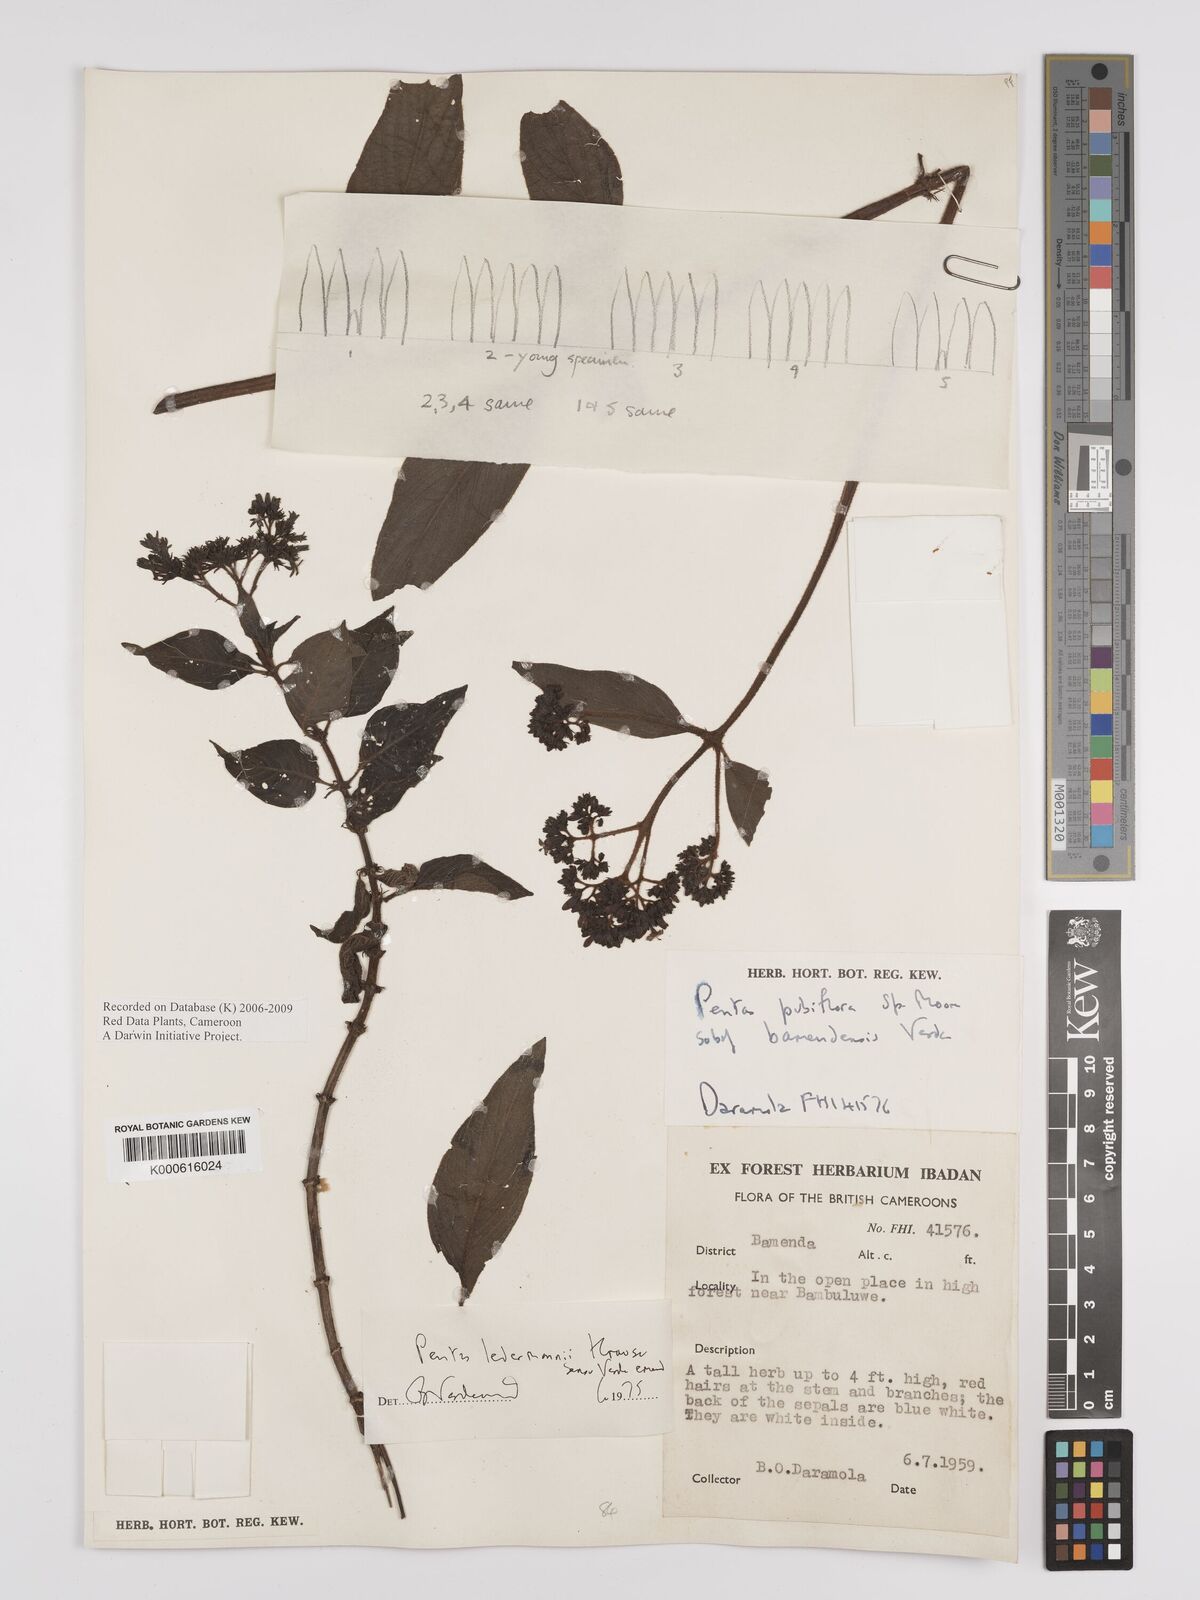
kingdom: Plantae
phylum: Tracheophyta
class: Magnoliopsida
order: Gentianales
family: Rubiaceae
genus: Phyllopentas
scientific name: Phyllopentas ledermannii
